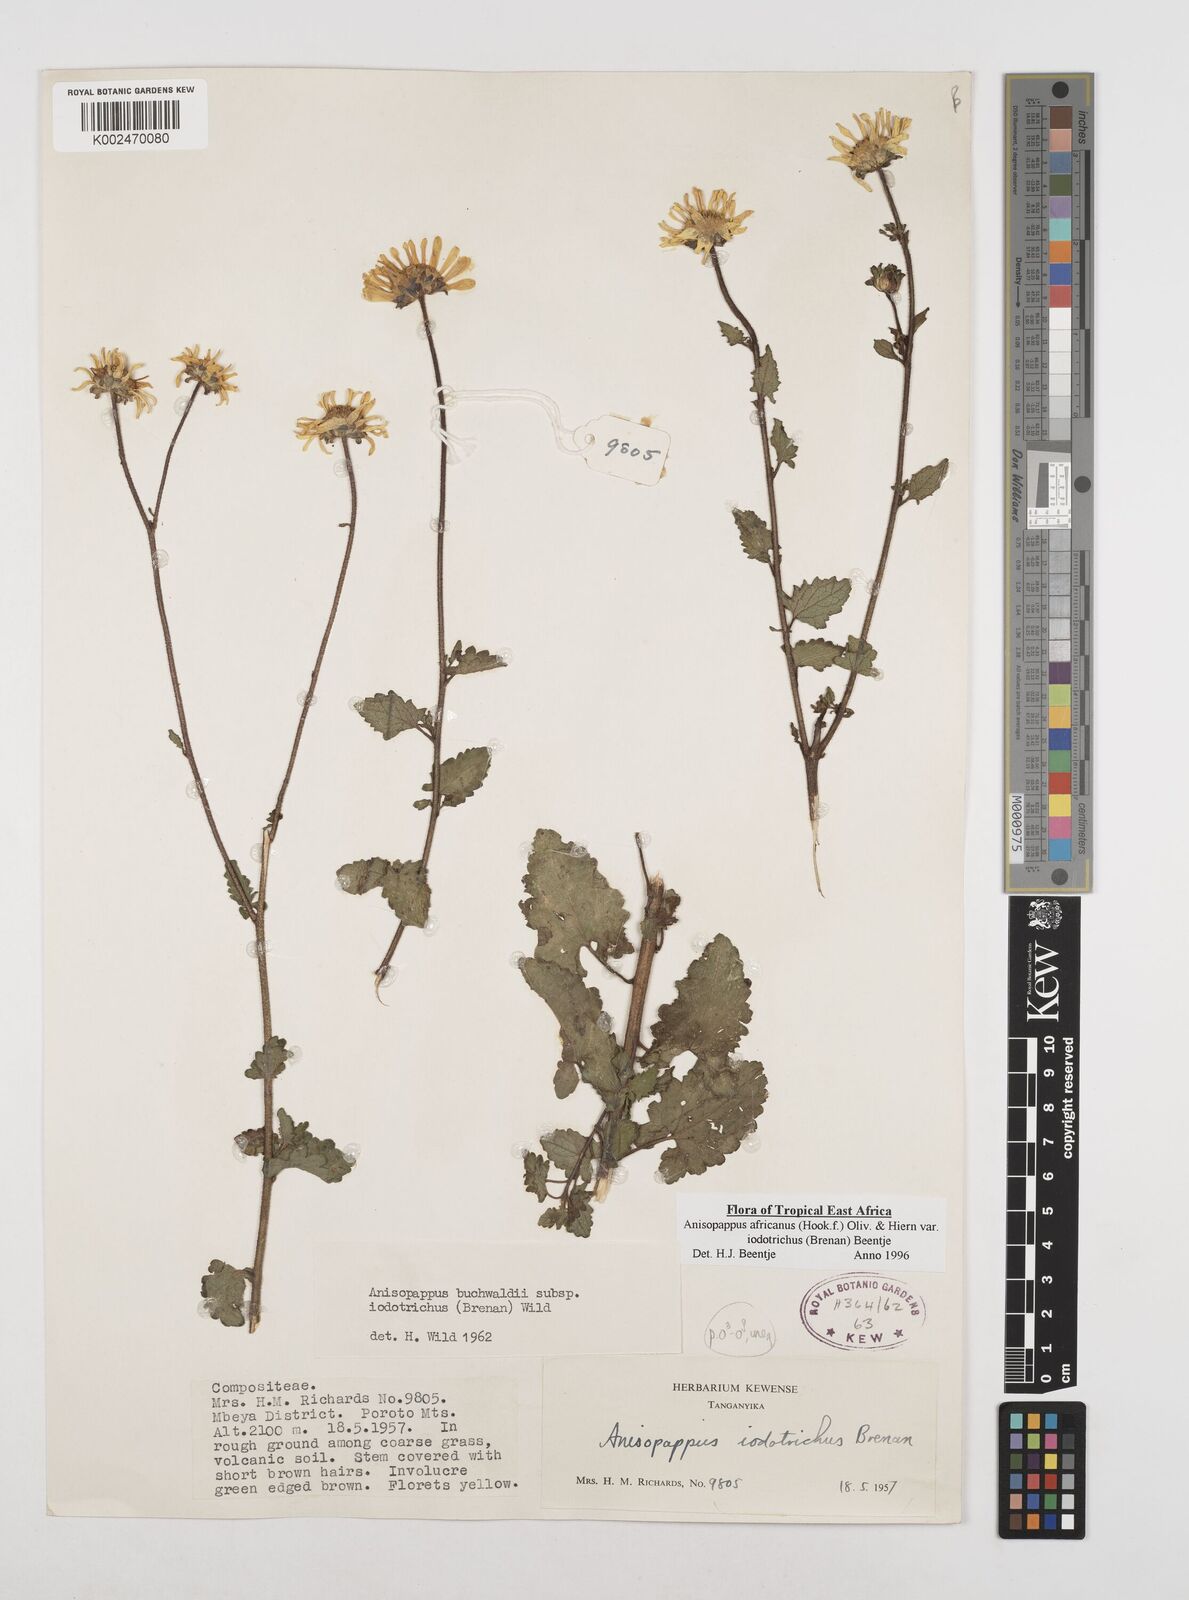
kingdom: Plantae
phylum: Tracheophyta
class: Magnoliopsida
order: Asterales
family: Asteraceae
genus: Anisopappus
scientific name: Anisopappus buchwaldii
